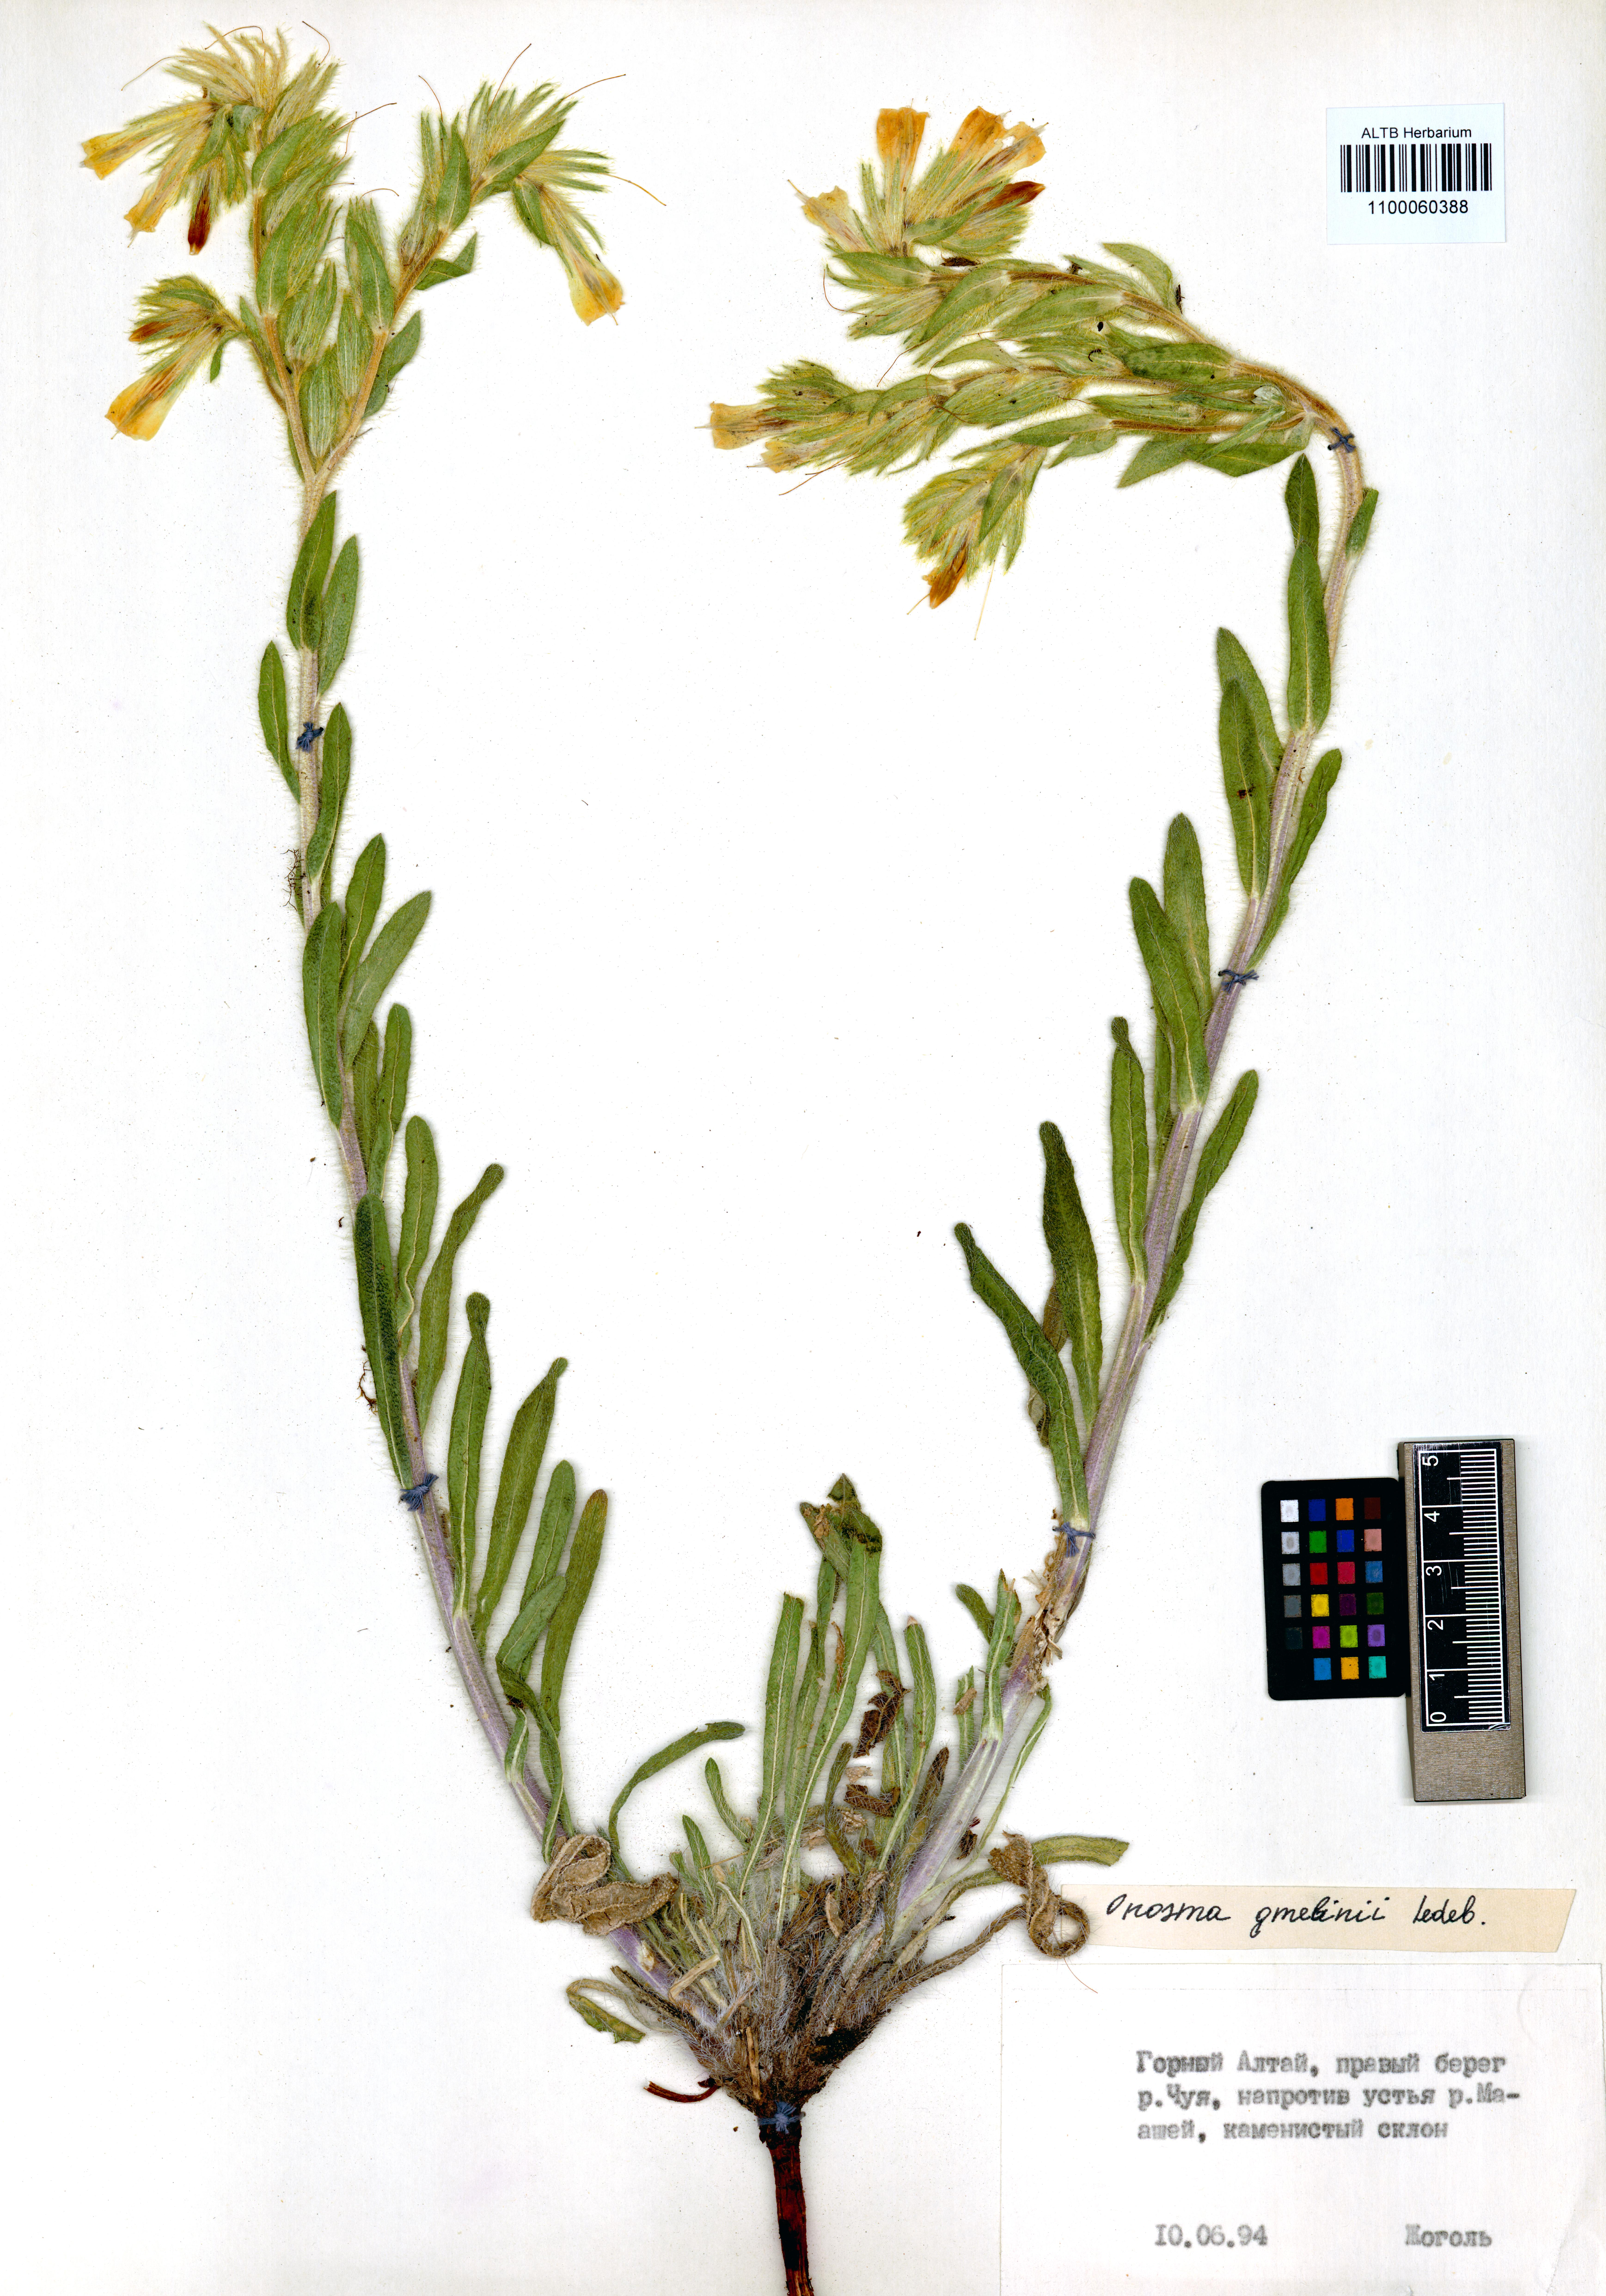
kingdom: Plantae
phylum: Tracheophyta
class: Magnoliopsida
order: Boraginales
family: Boraginaceae
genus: Onosma
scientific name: Onosma gmelinii
